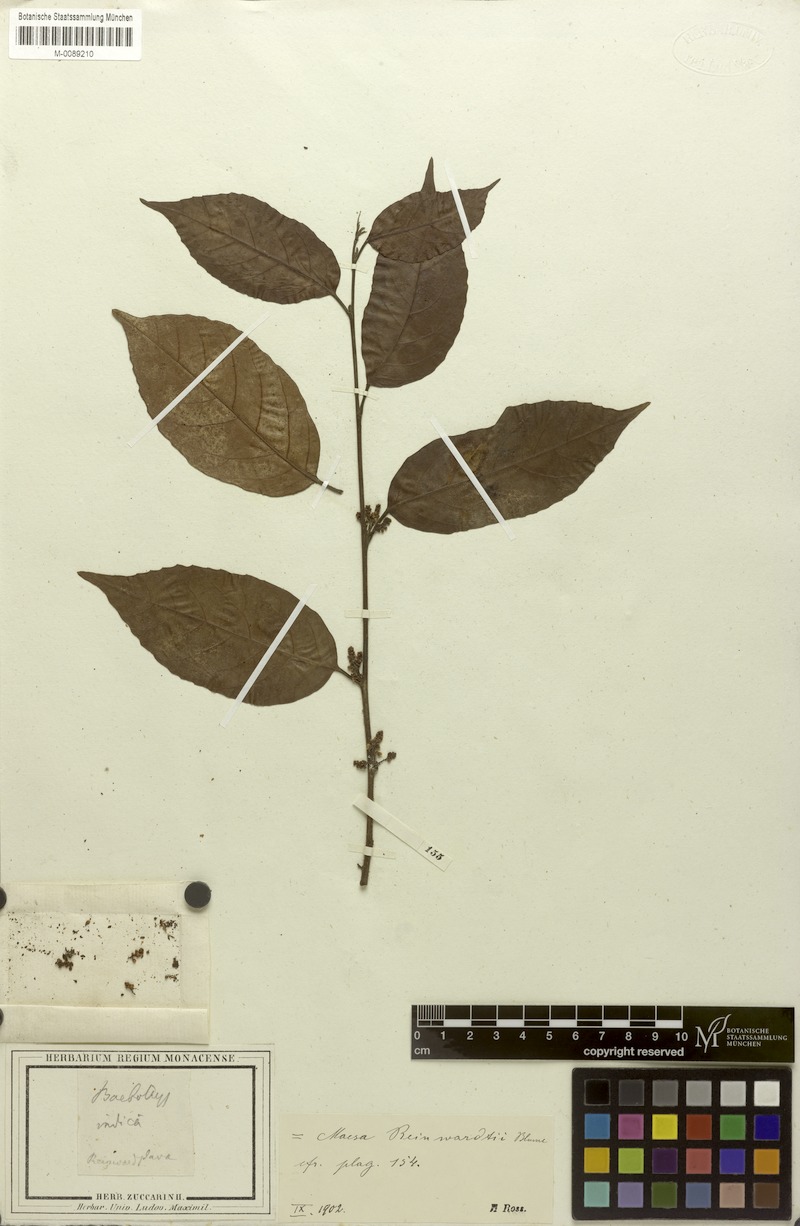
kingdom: Plantae
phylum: Tracheophyta
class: Magnoliopsida
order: Ericales
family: Primulaceae
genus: Maesa
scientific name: Maesa reinwardtii
